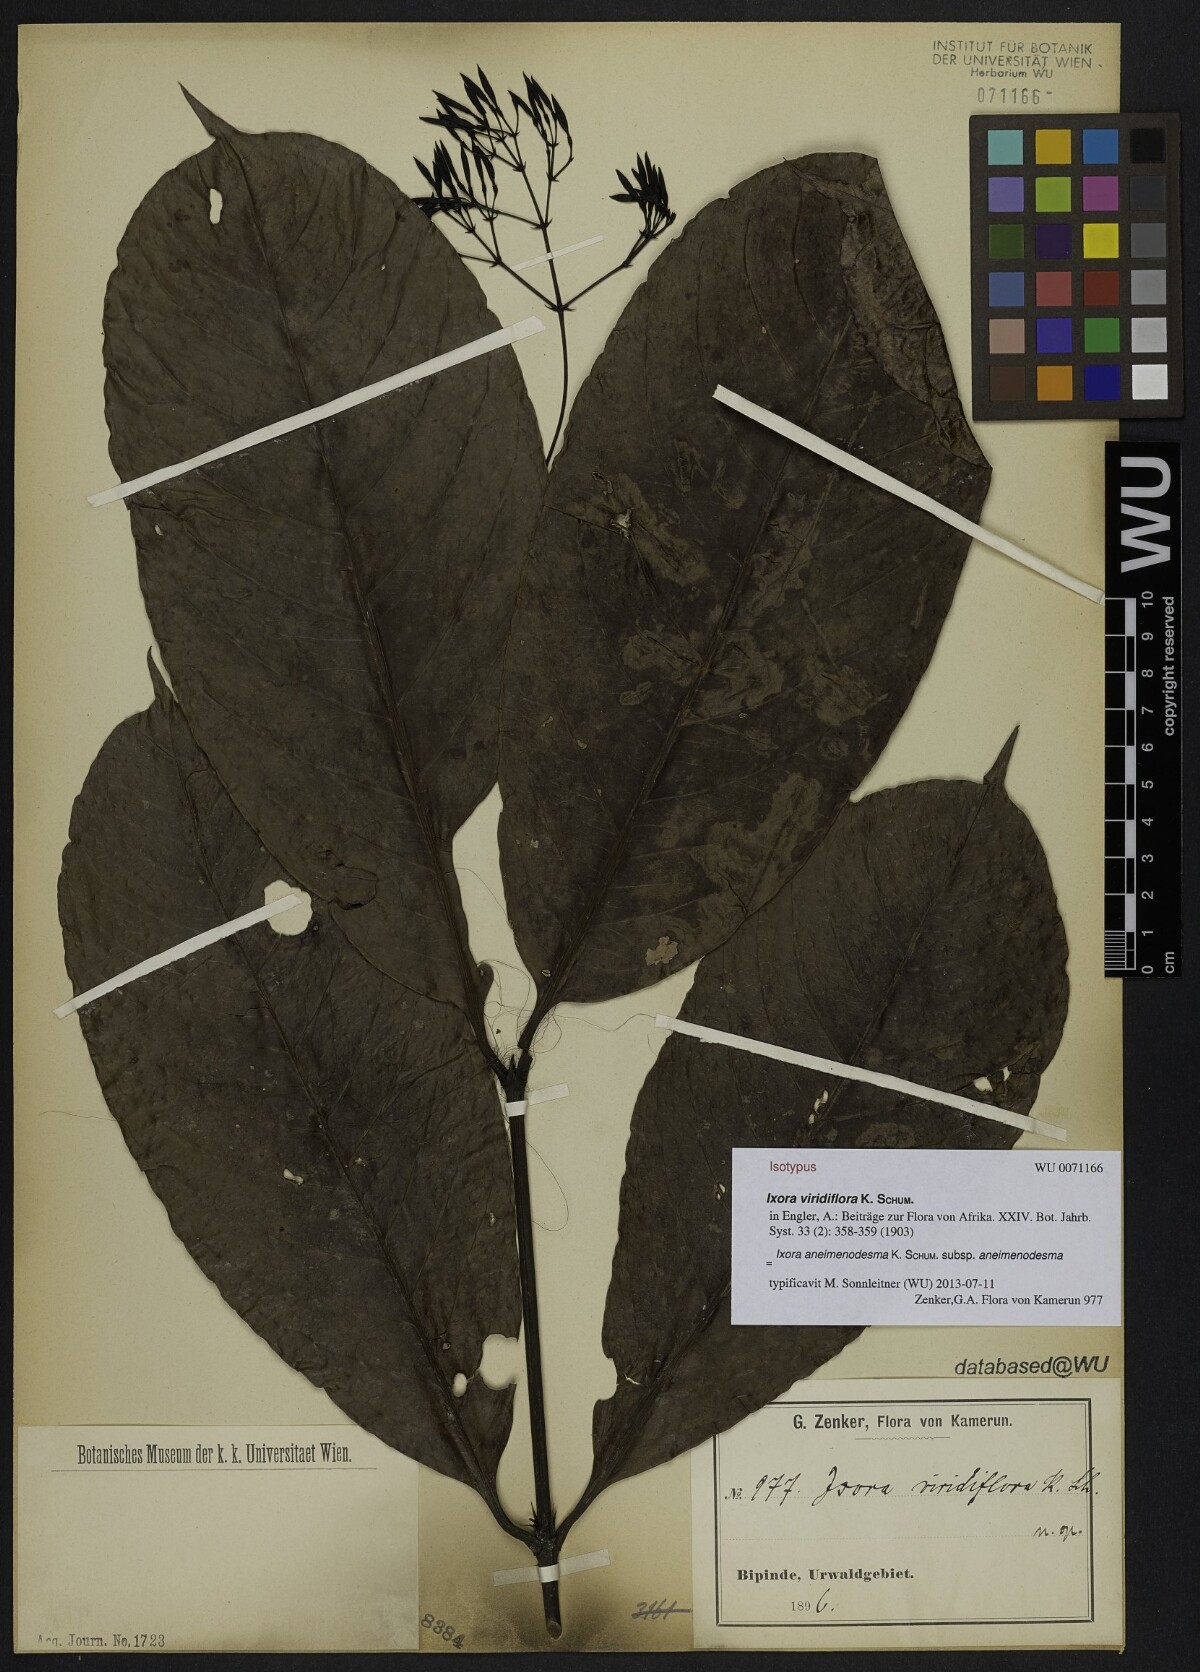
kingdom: Plantae
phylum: Tracheophyta
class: Magnoliopsida
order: Gentianales
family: Rubiaceae
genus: Ixora
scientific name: Ixora viridiflora
